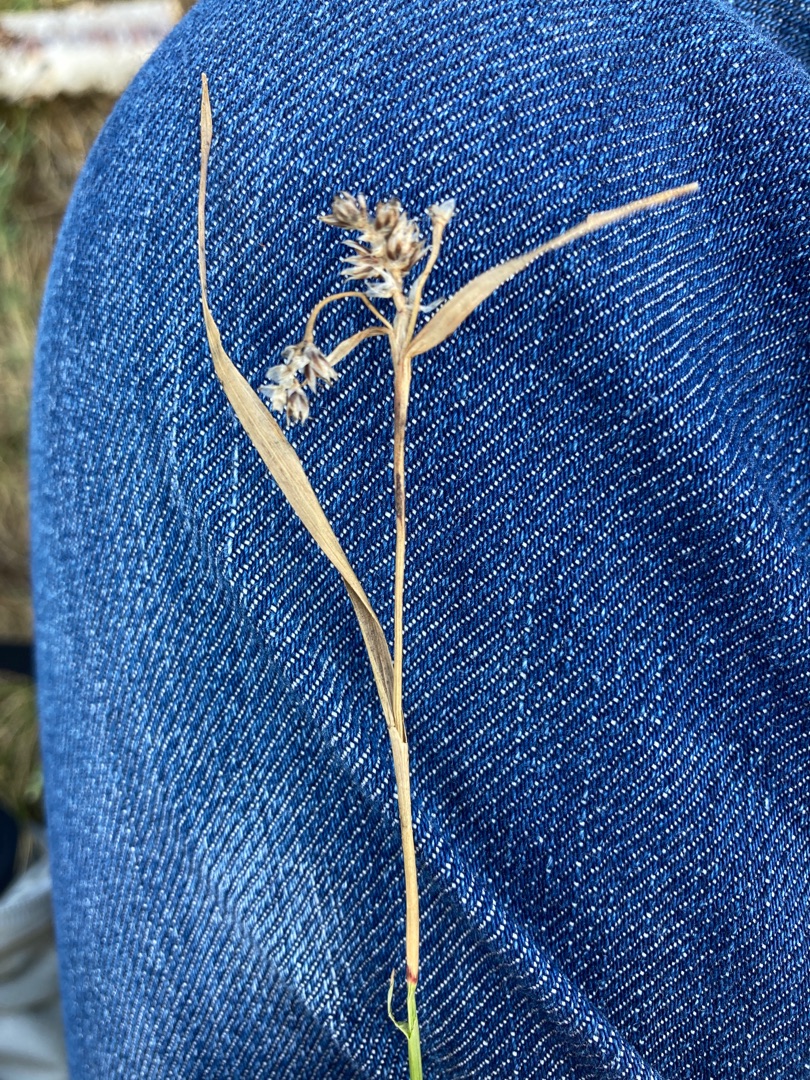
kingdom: Plantae
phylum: Tracheophyta
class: Liliopsida
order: Poales
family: Juncaceae
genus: Luzula
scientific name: Luzula campestris
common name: Mark-frytle
